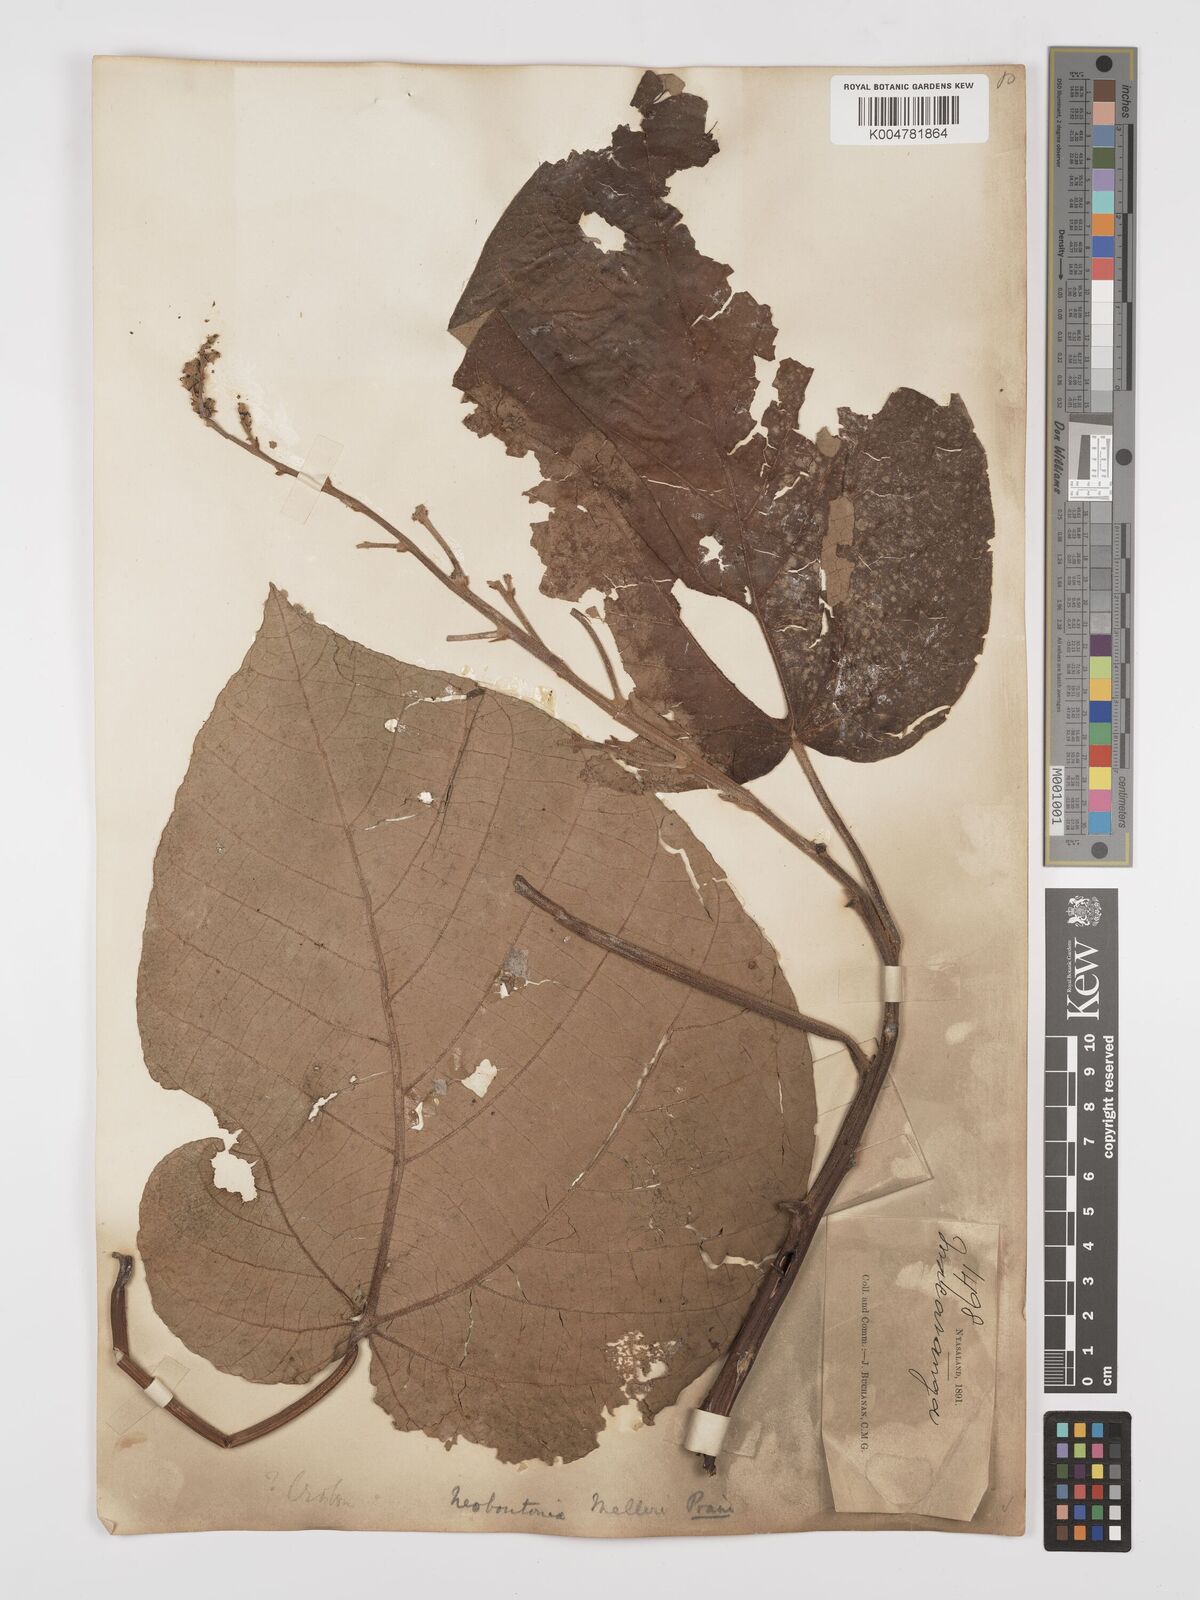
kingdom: Plantae
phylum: Tracheophyta
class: Magnoliopsida
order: Malpighiales
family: Euphorbiaceae
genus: Neoboutonia
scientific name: Neoboutonia melleri
